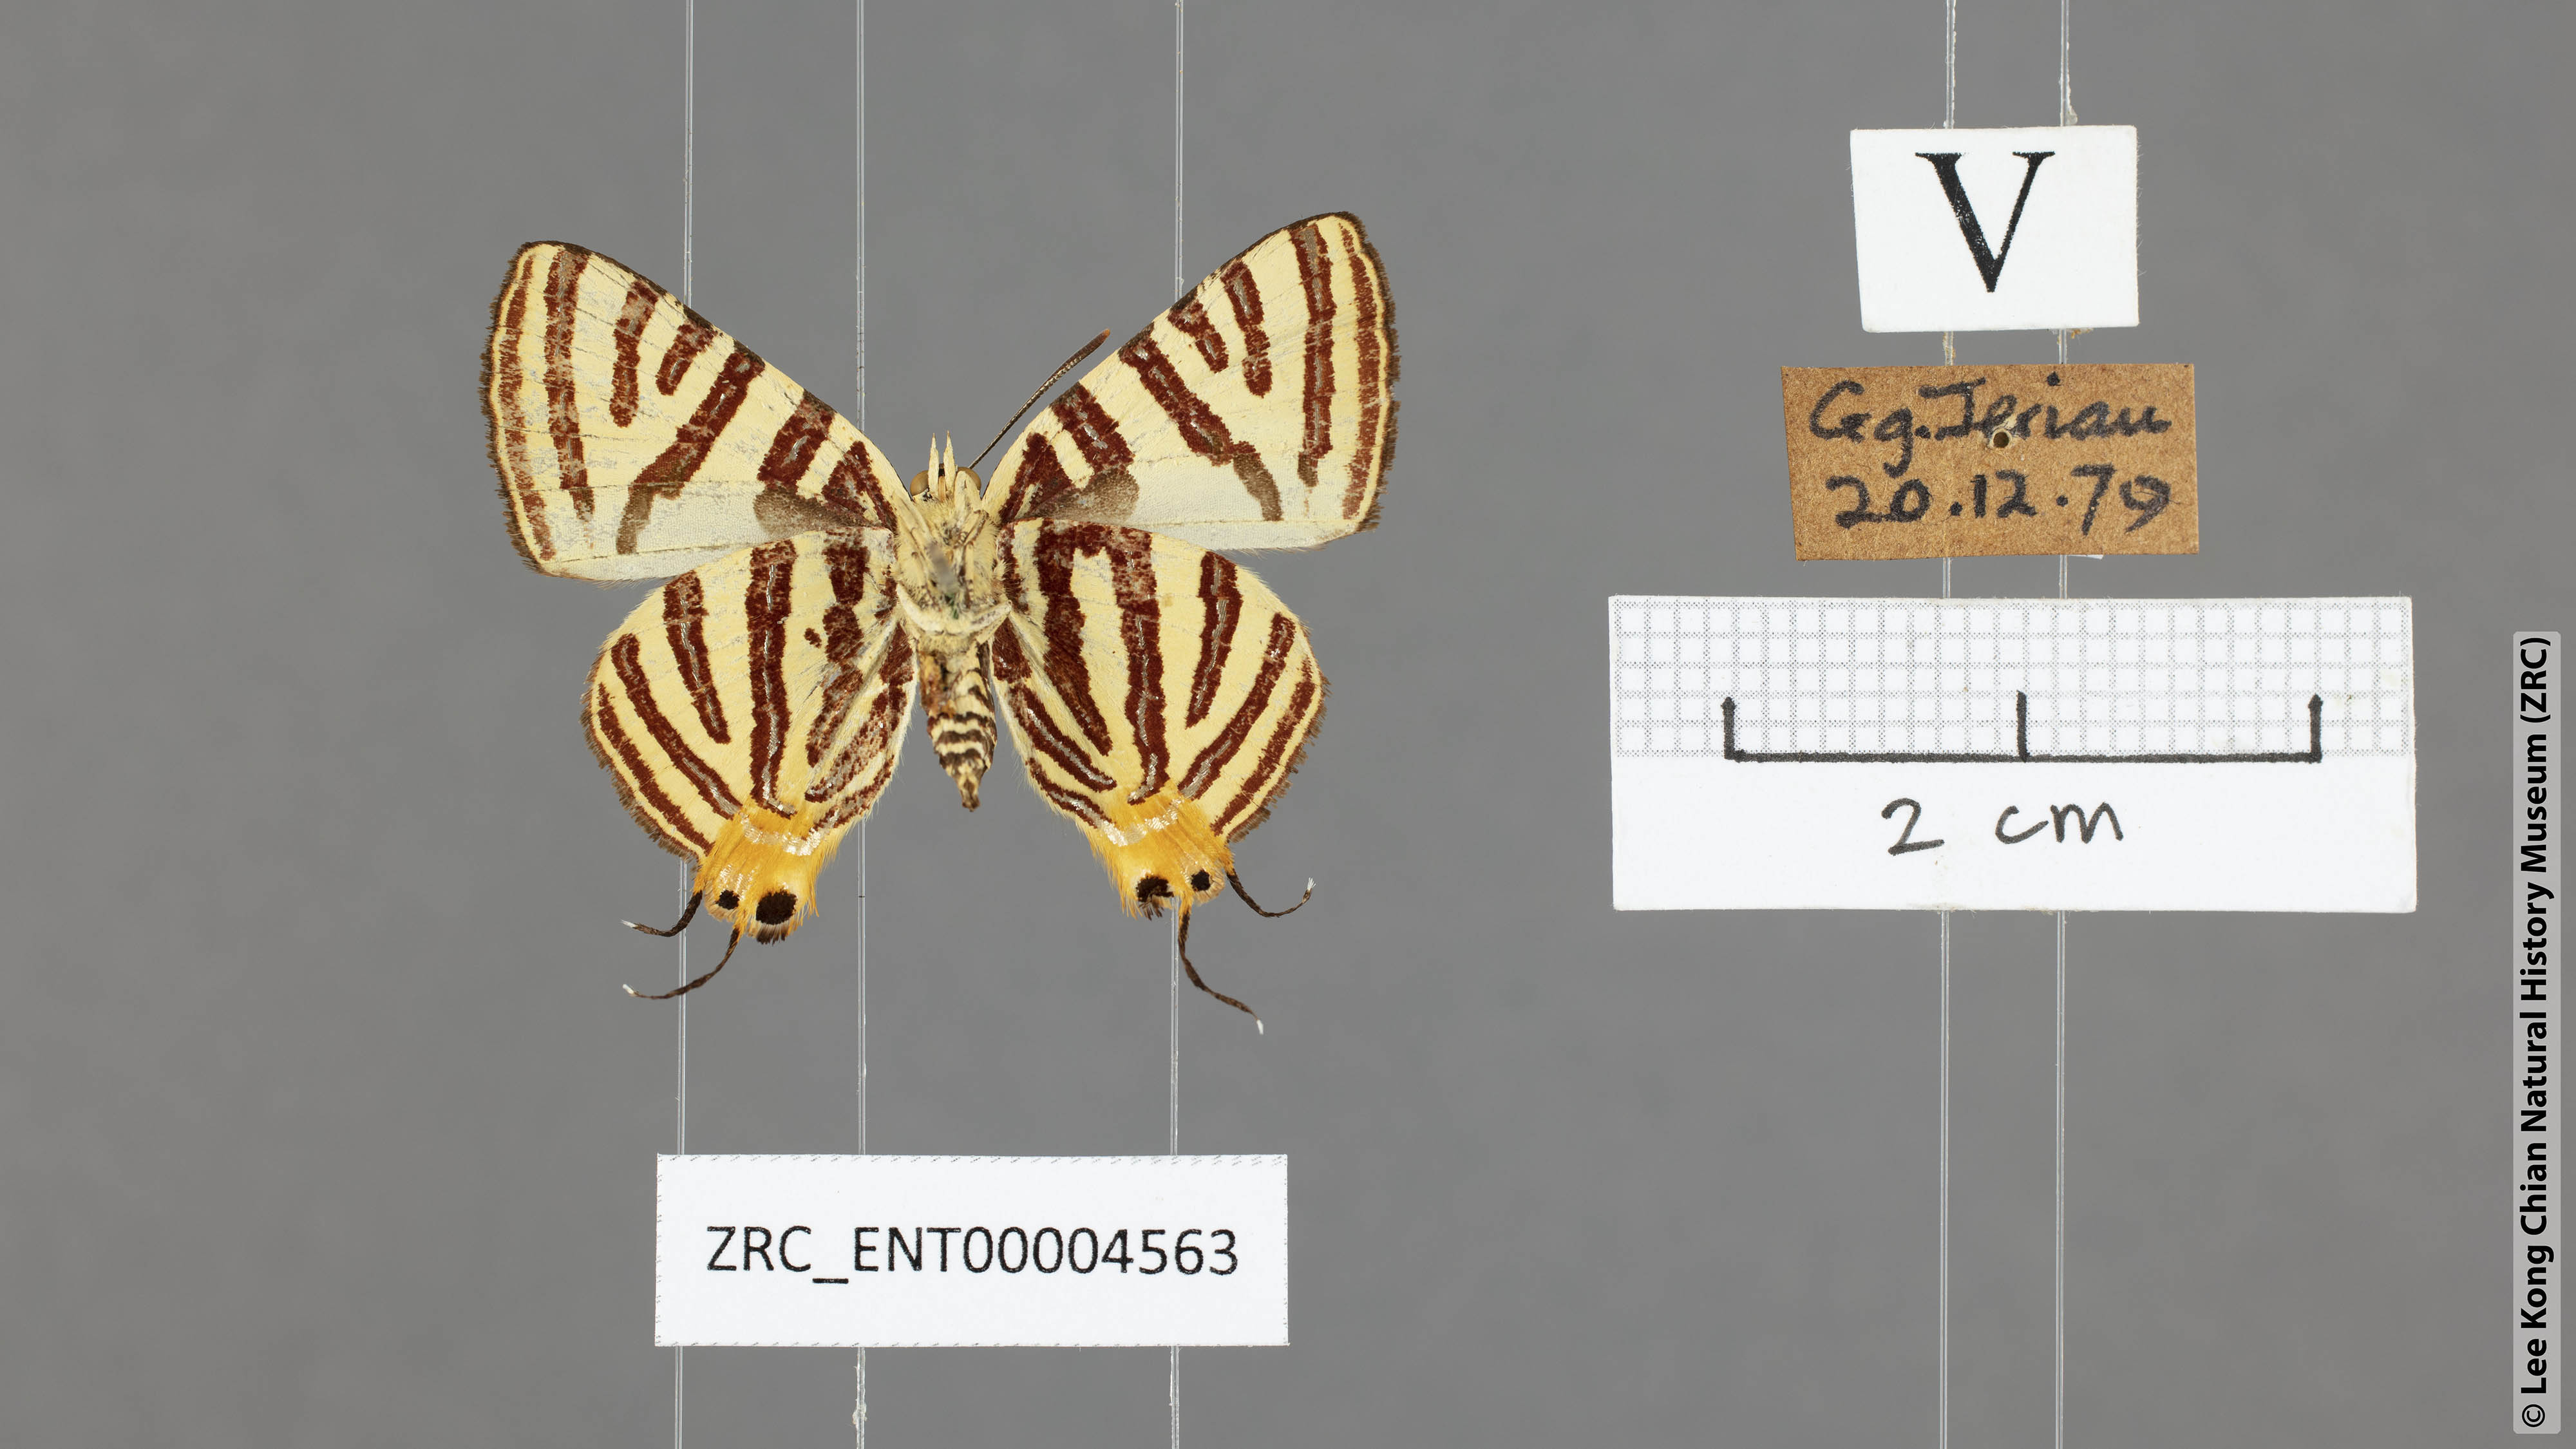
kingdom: Animalia
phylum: Arthropoda
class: Insecta
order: Lepidoptera
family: Lycaenidae
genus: Spindasis
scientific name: Spindasis seliga
